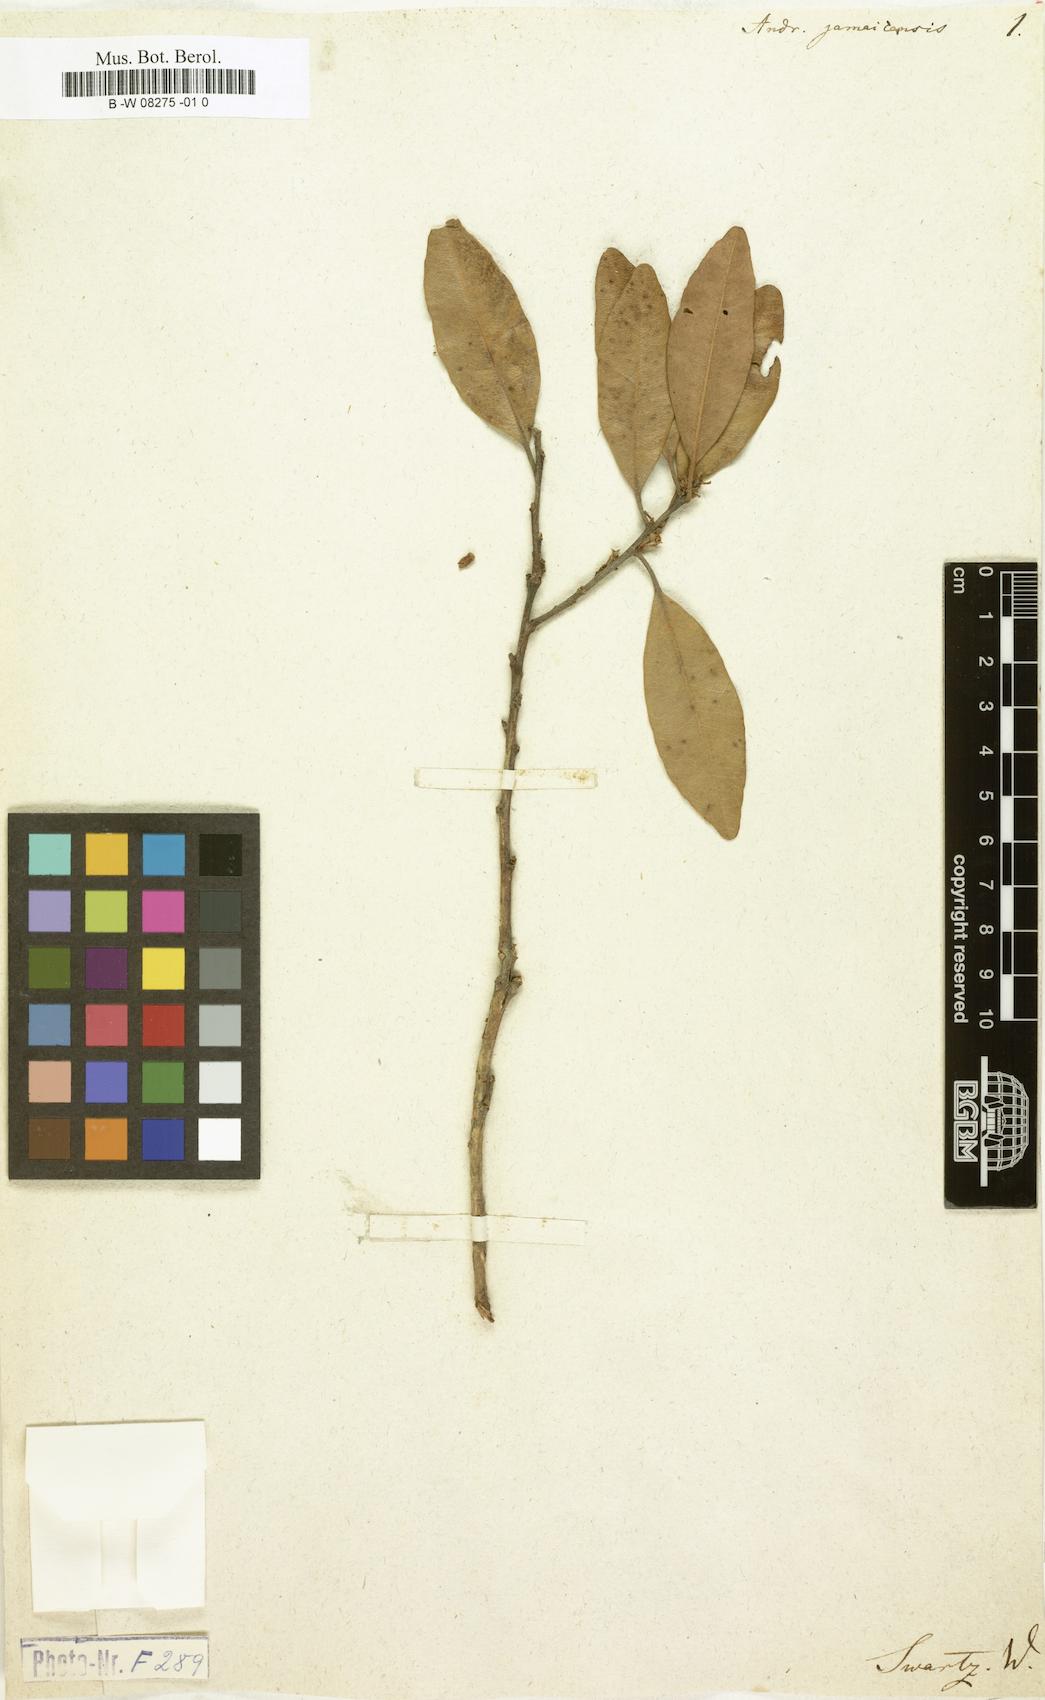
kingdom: Plantae
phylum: Tracheophyta
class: Magnoliopsida
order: Ericales
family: Ericaceae
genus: Lyonia
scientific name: Lyonia
